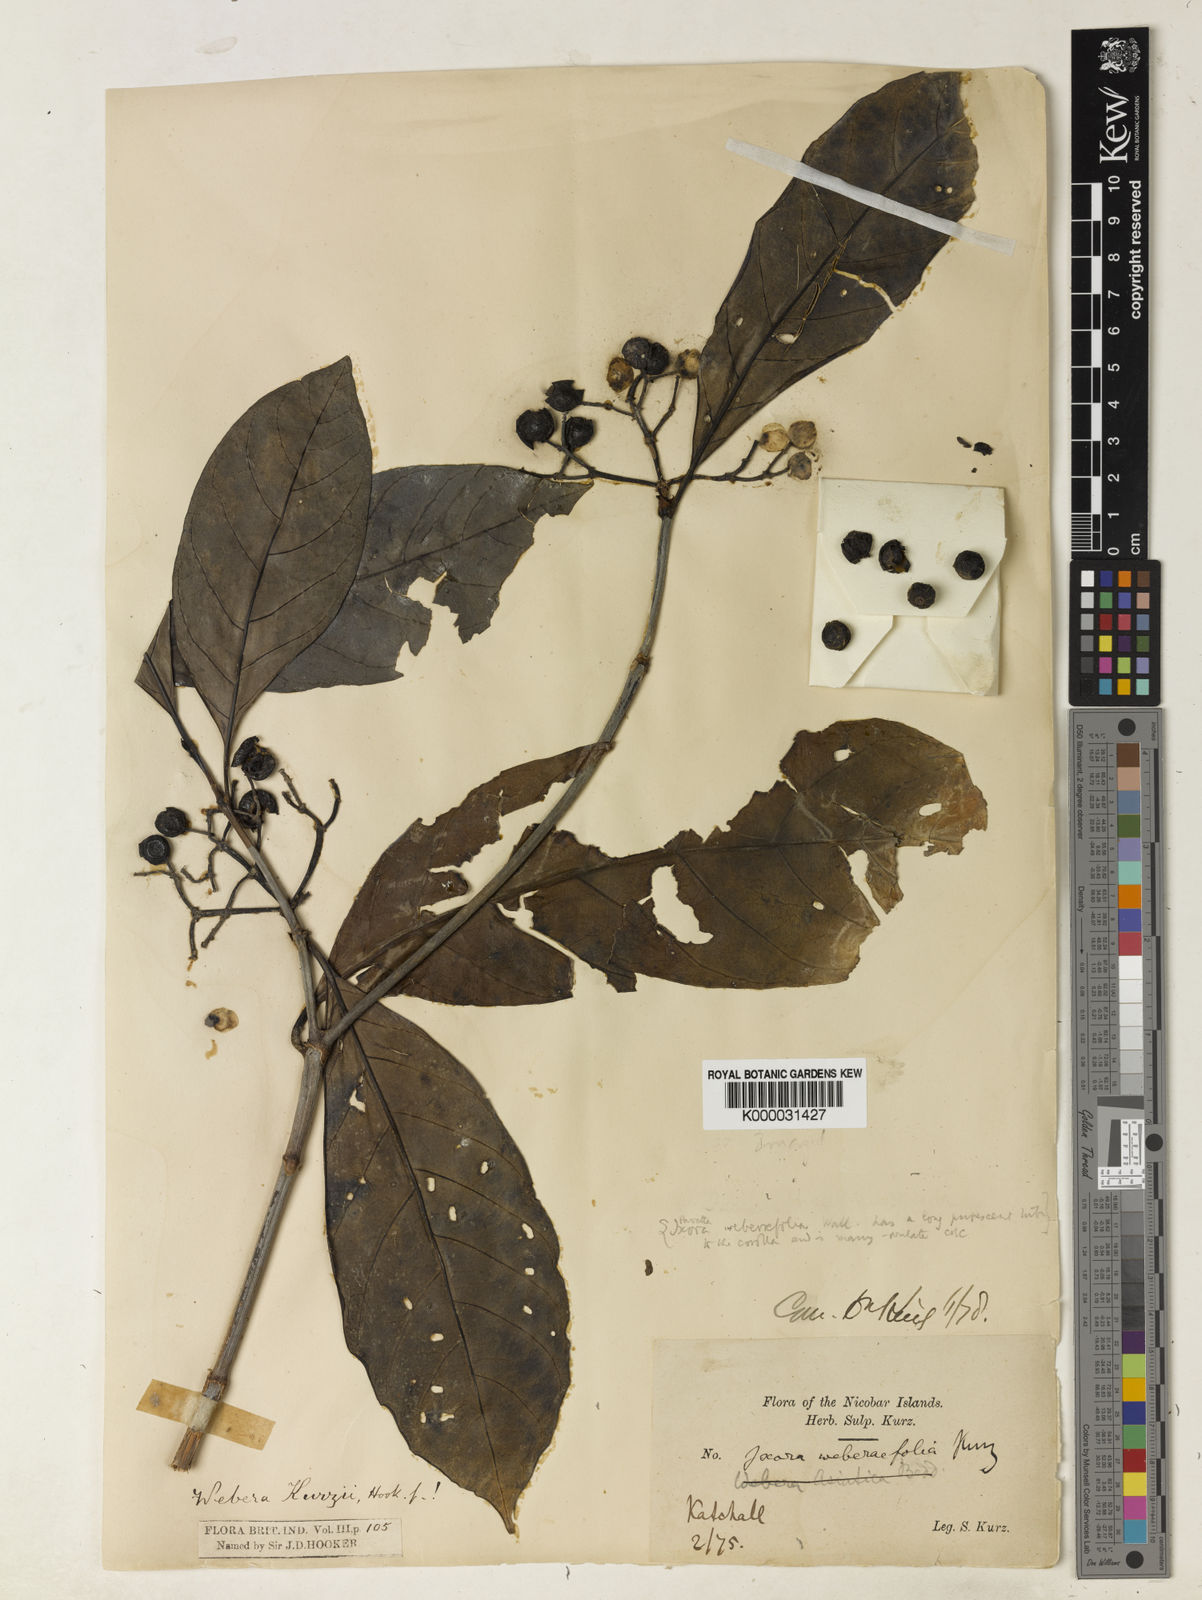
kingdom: Plantae
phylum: Tracheophyta
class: Magnoliopsida
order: Gentianales
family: Rubiaceae
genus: Tarenna
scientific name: Tarenna
